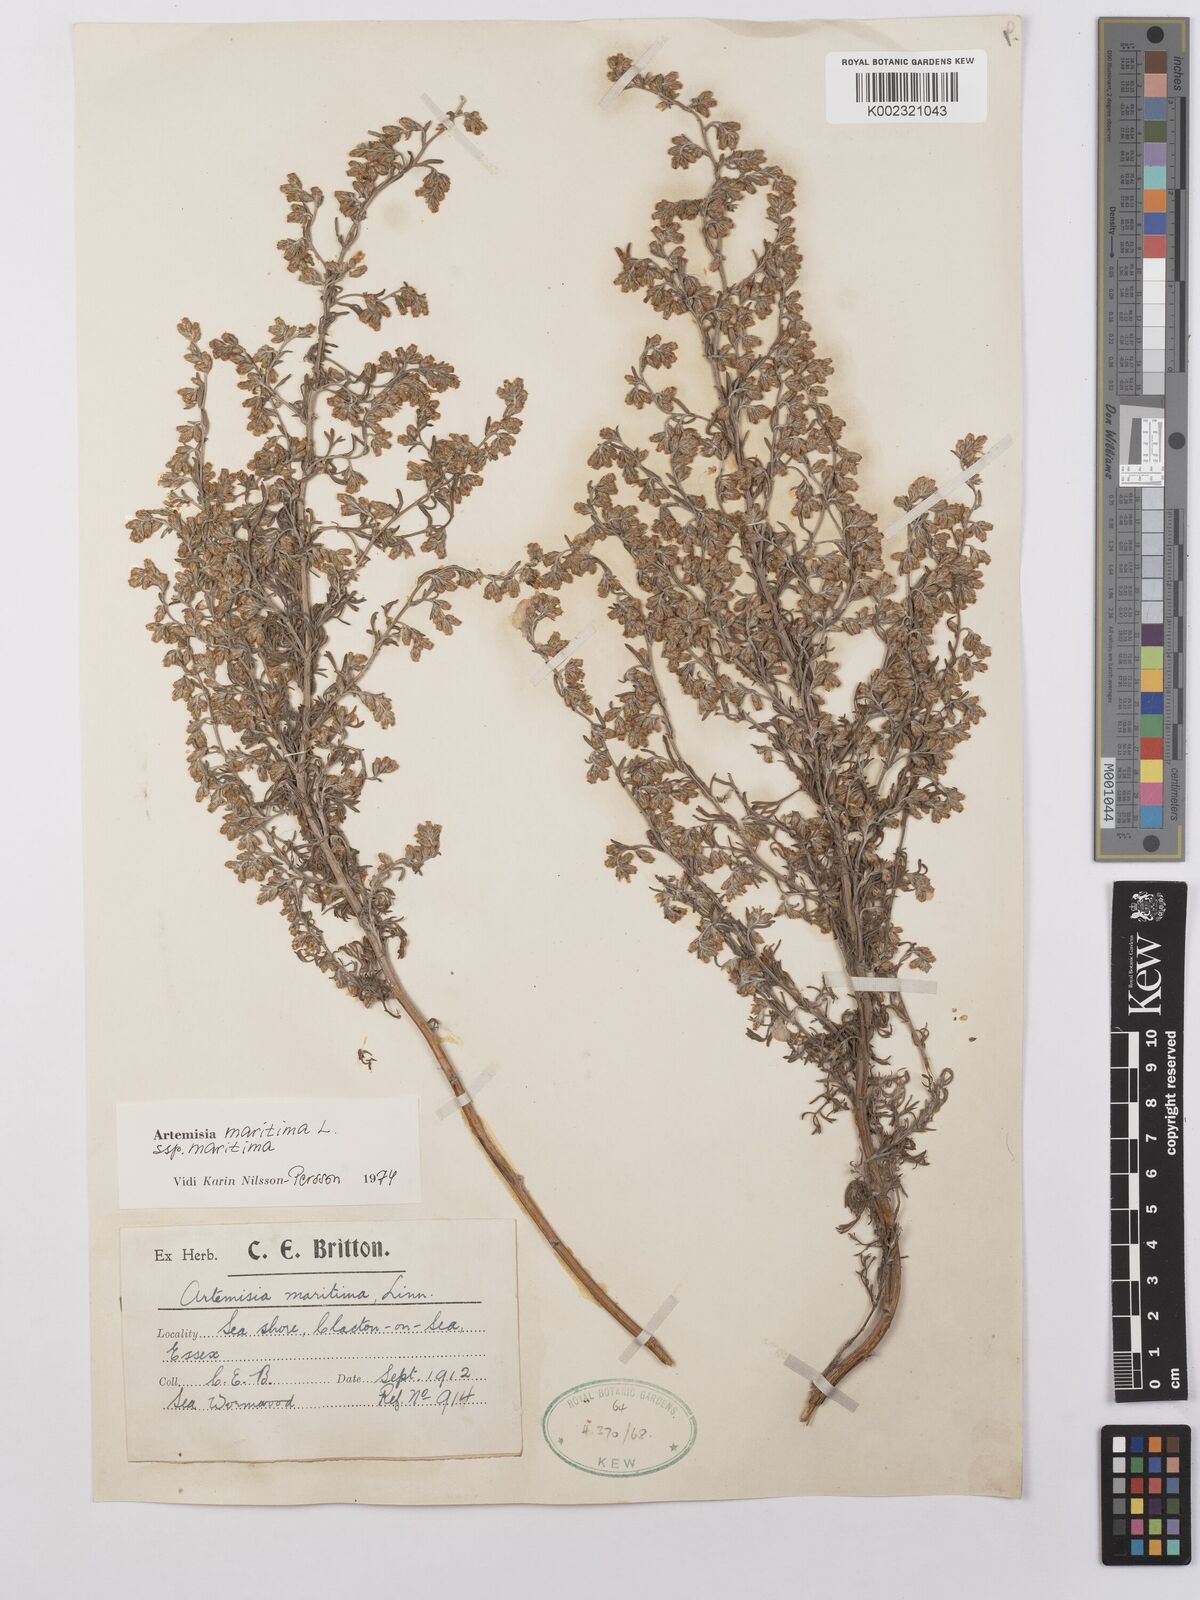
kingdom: Plantae
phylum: Tracheophyta
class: Magnoliopsida
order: Asterales
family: Asteraceae
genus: Artemisia
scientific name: Artemisia maritima
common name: Wormseed
